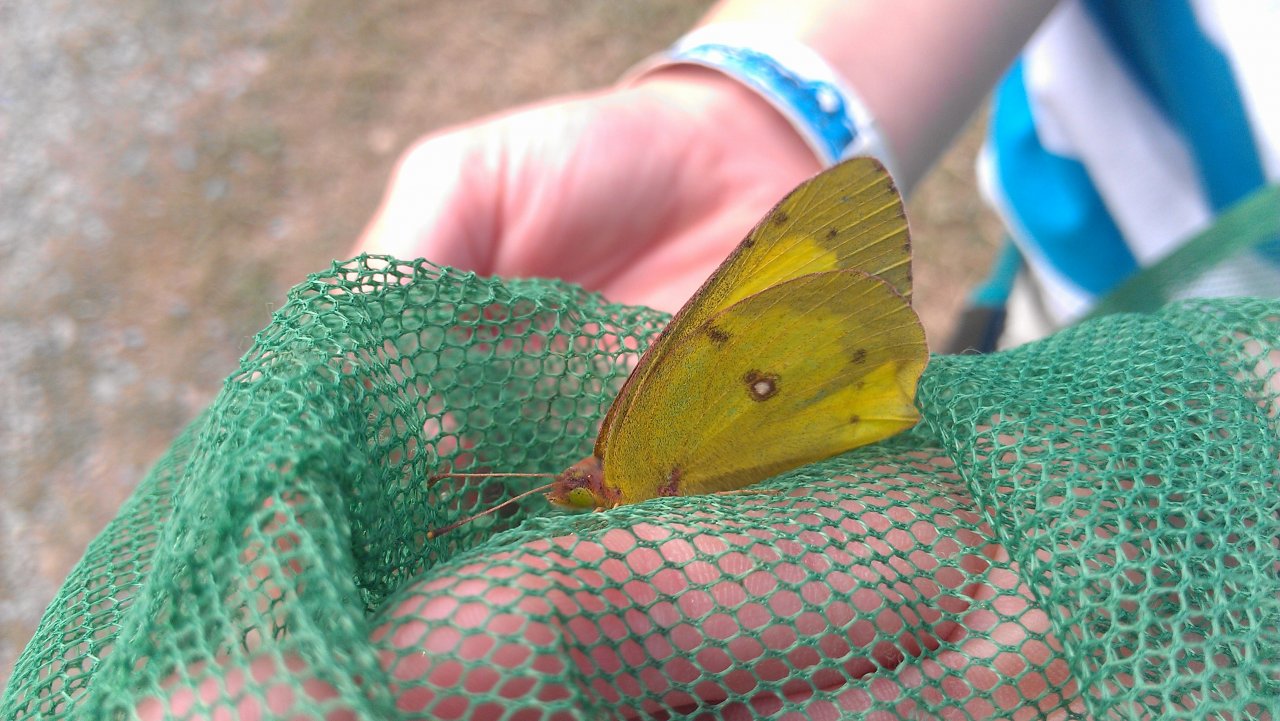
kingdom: Animalia
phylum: Arthropoda
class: Insecta
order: Lepidoptera
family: Pieridae
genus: Colias
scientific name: Colias philodice
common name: Clouded Sulphur
